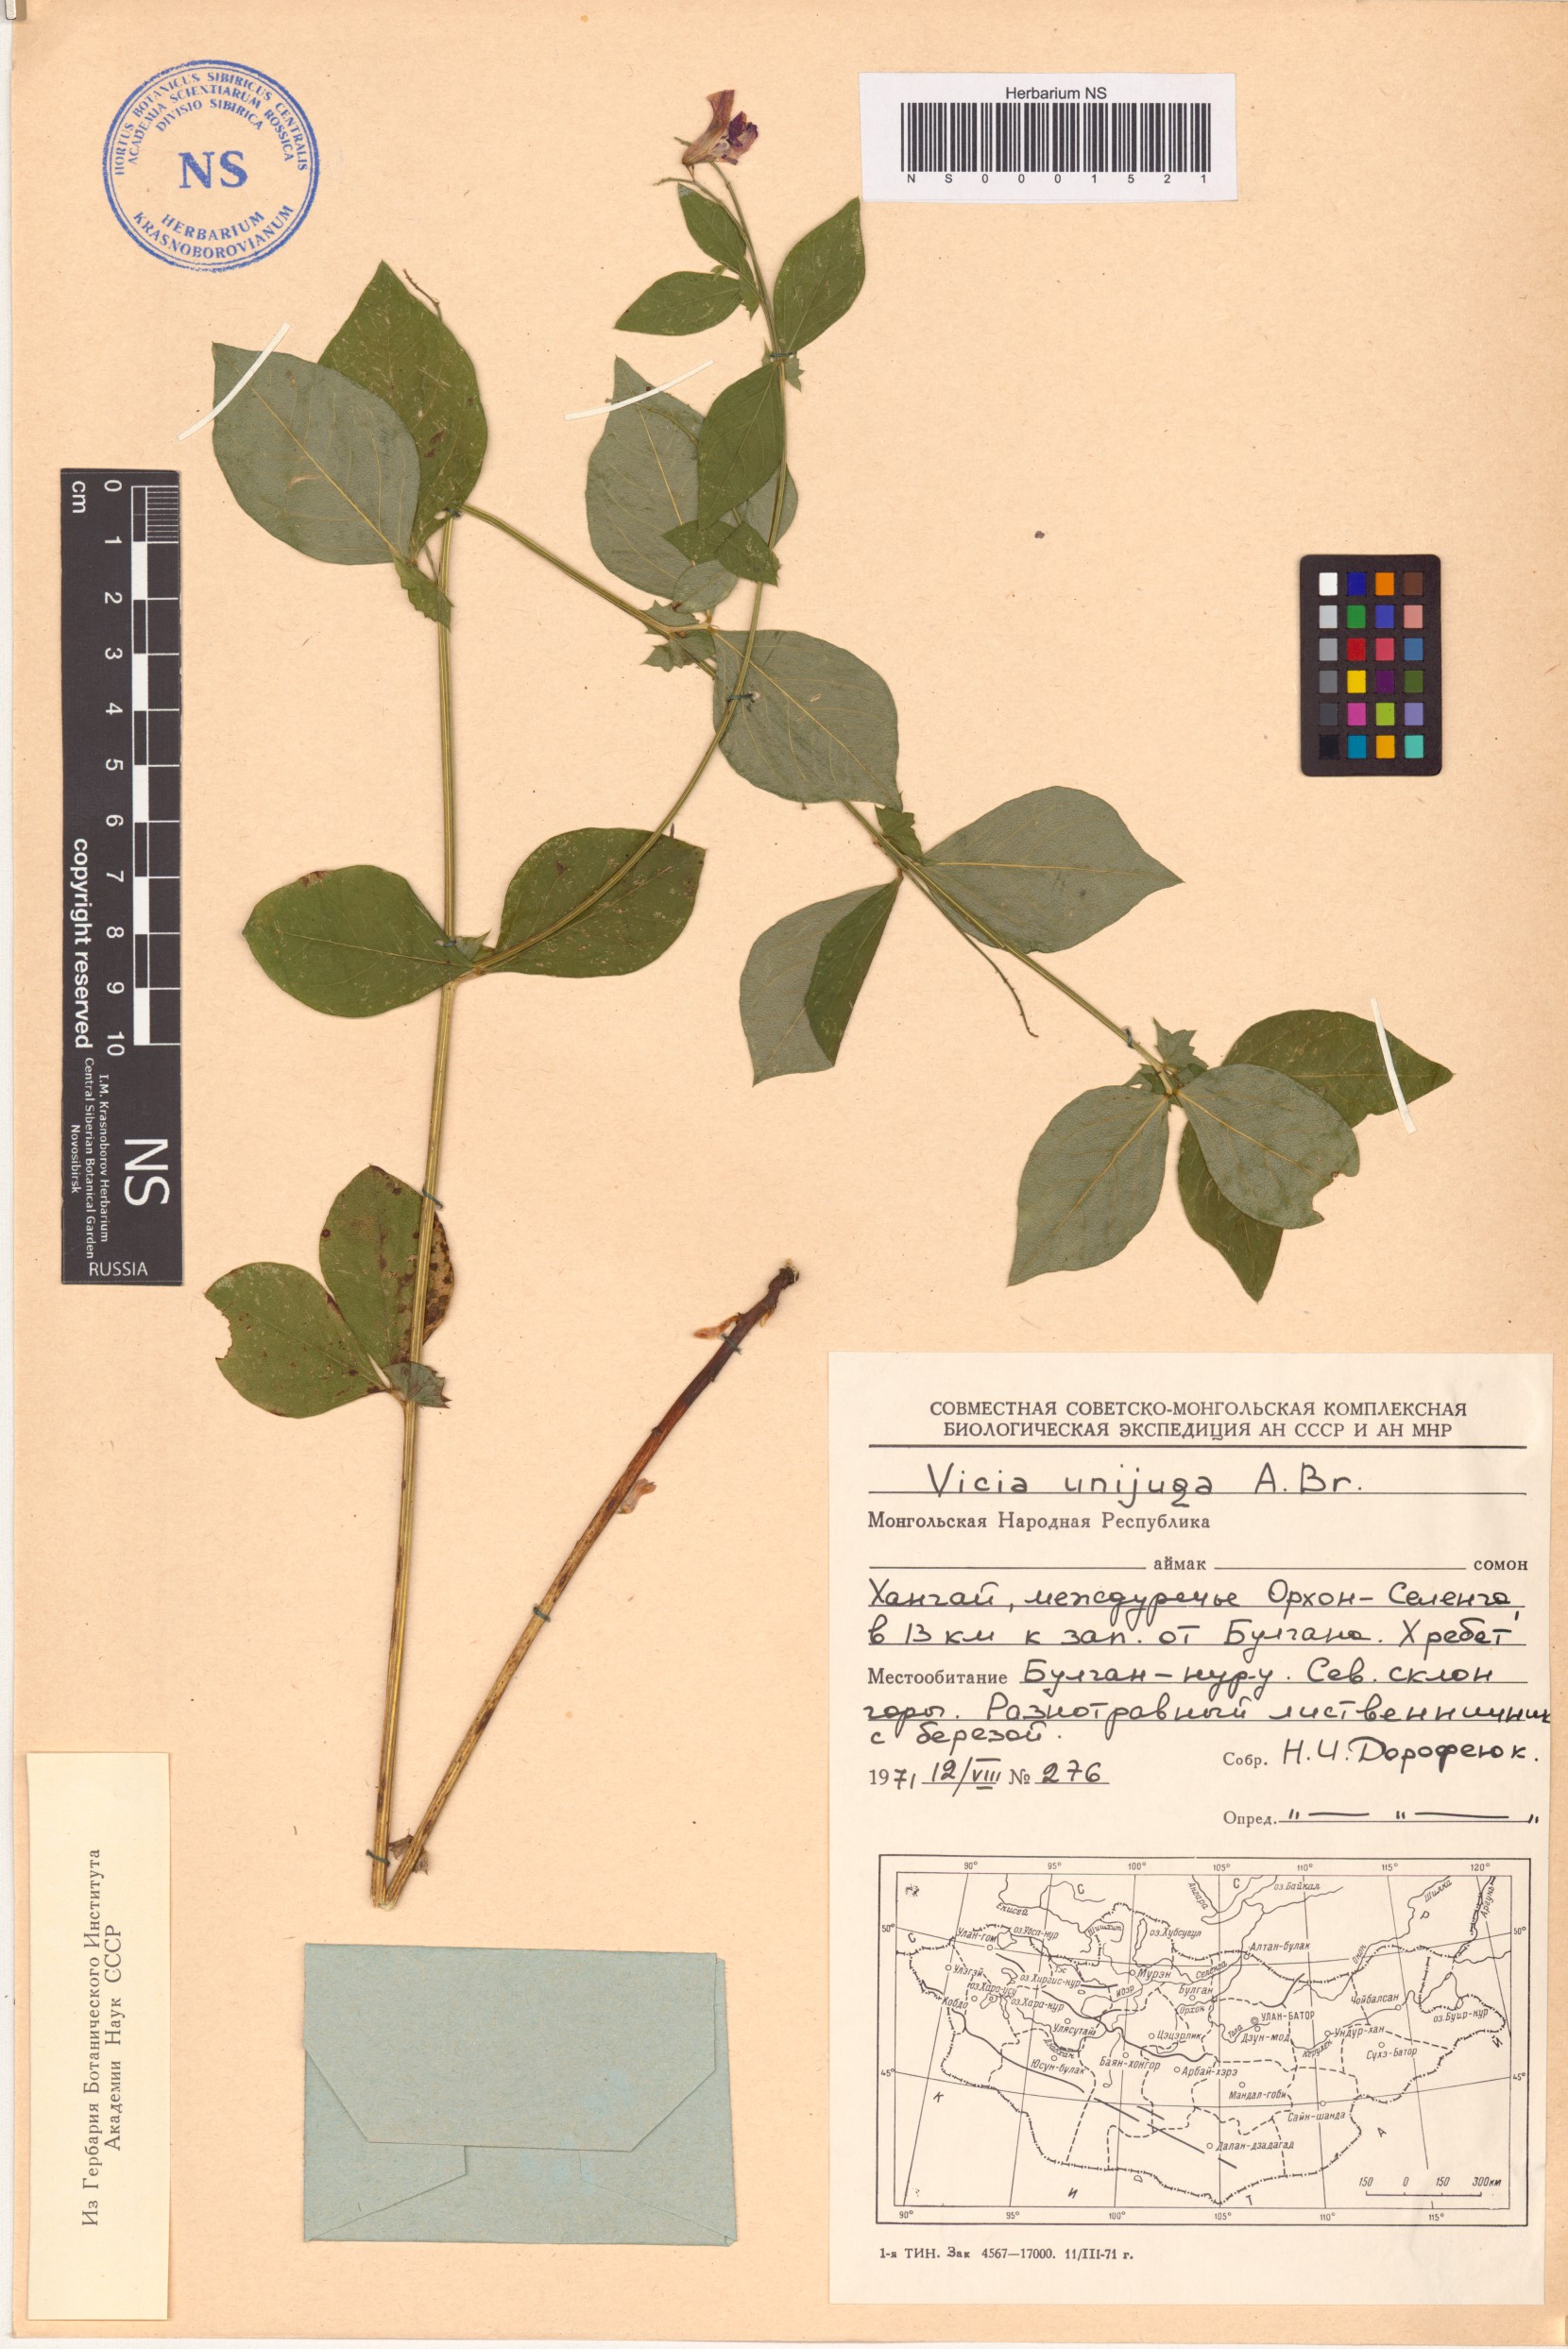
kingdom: Plantae
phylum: Tracheophyta
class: Magnoliopsida
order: Fabales
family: Fabaceae
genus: Vicia
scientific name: Vicia unijuga
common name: Two-leaf vetch
